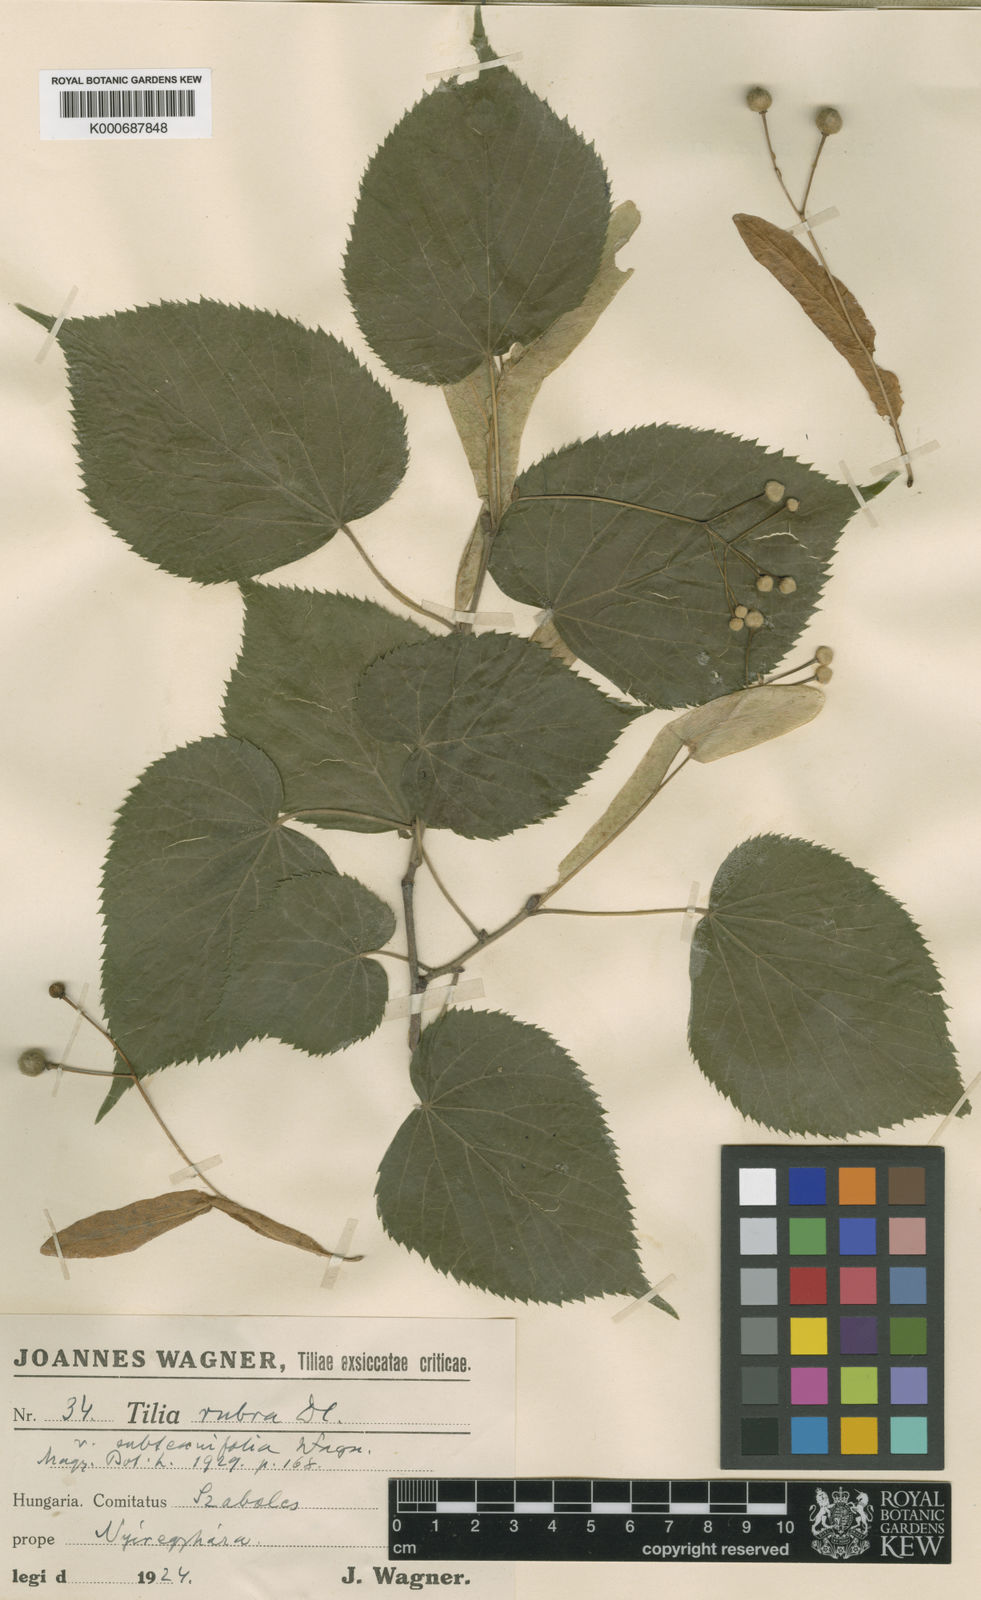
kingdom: Plantae
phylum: Tracheophyta
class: Magnoliopsida
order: Malvales
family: Malvaceae
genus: Tilia
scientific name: Tilia platyphyllos
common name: Large-leaved lime
